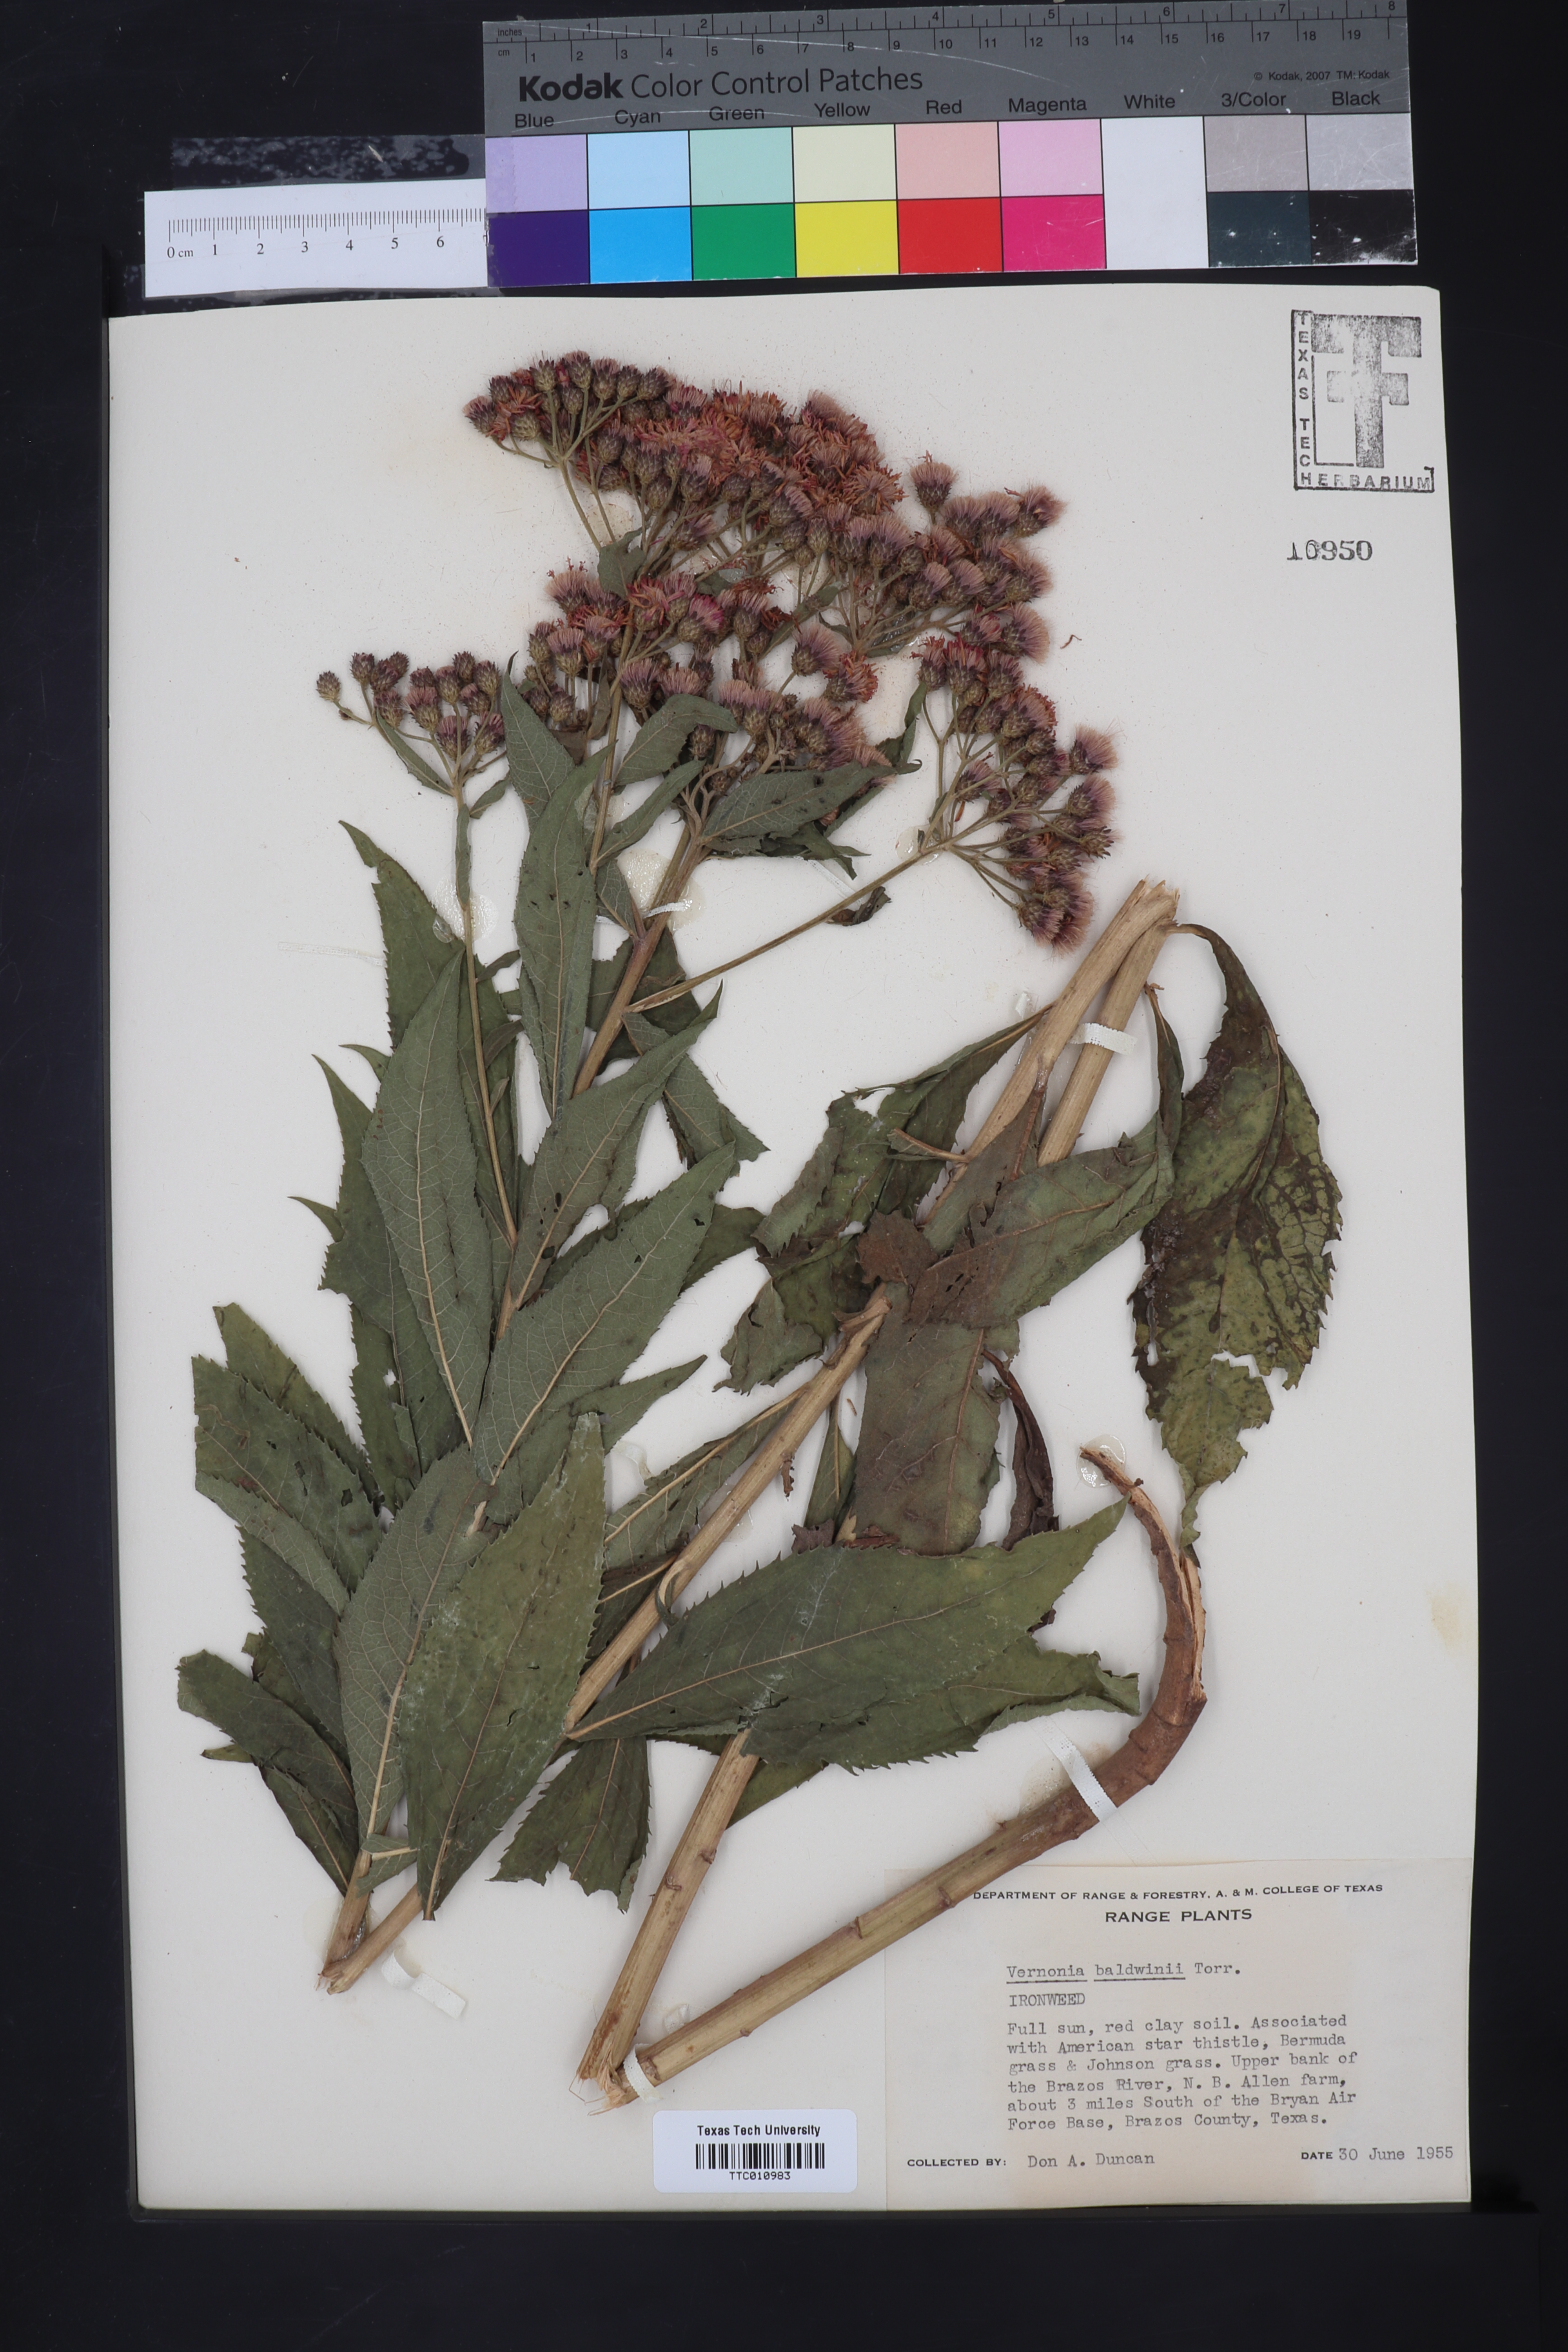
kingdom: Plantae
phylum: Tracheophyta
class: Magnoliopsida
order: Asterales
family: Asteraceae
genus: Vernonia
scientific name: Vernonia baldwinii
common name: Western ironweed
